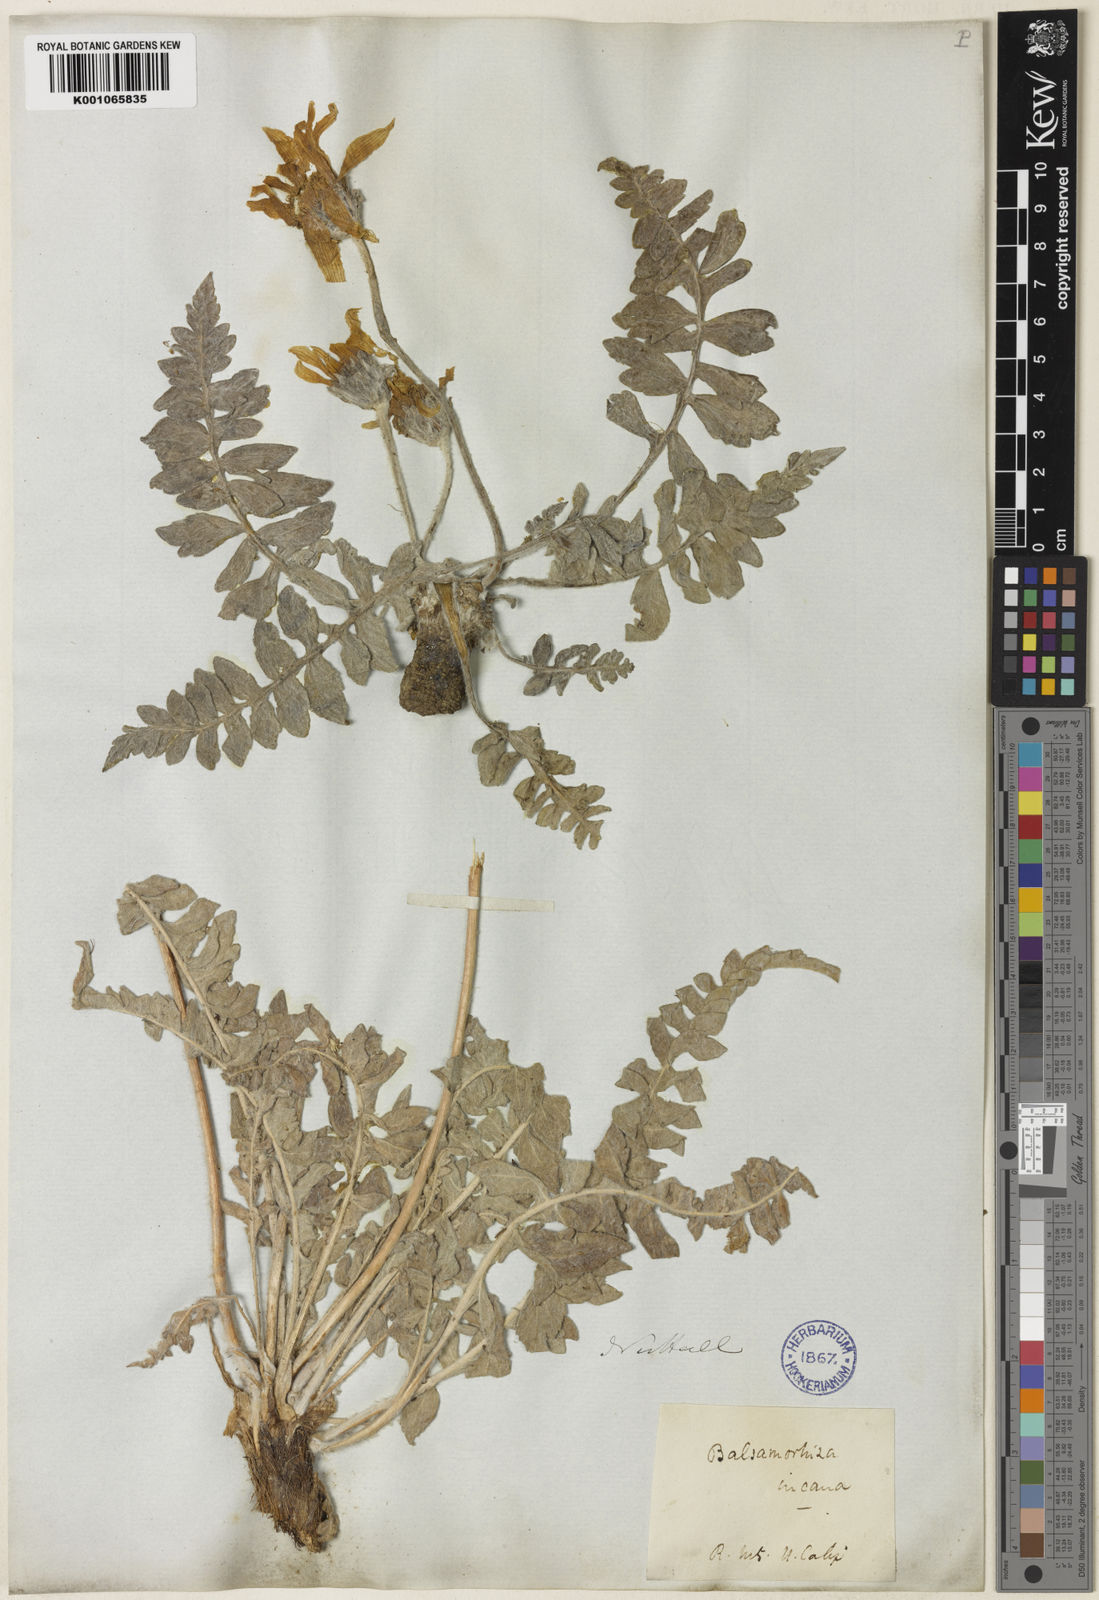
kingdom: Plantae
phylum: Tracheophyta
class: Magnoliopsida
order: Asterales
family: Asteraceae
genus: Balsamorhiza
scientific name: Balsamorhiza incana
